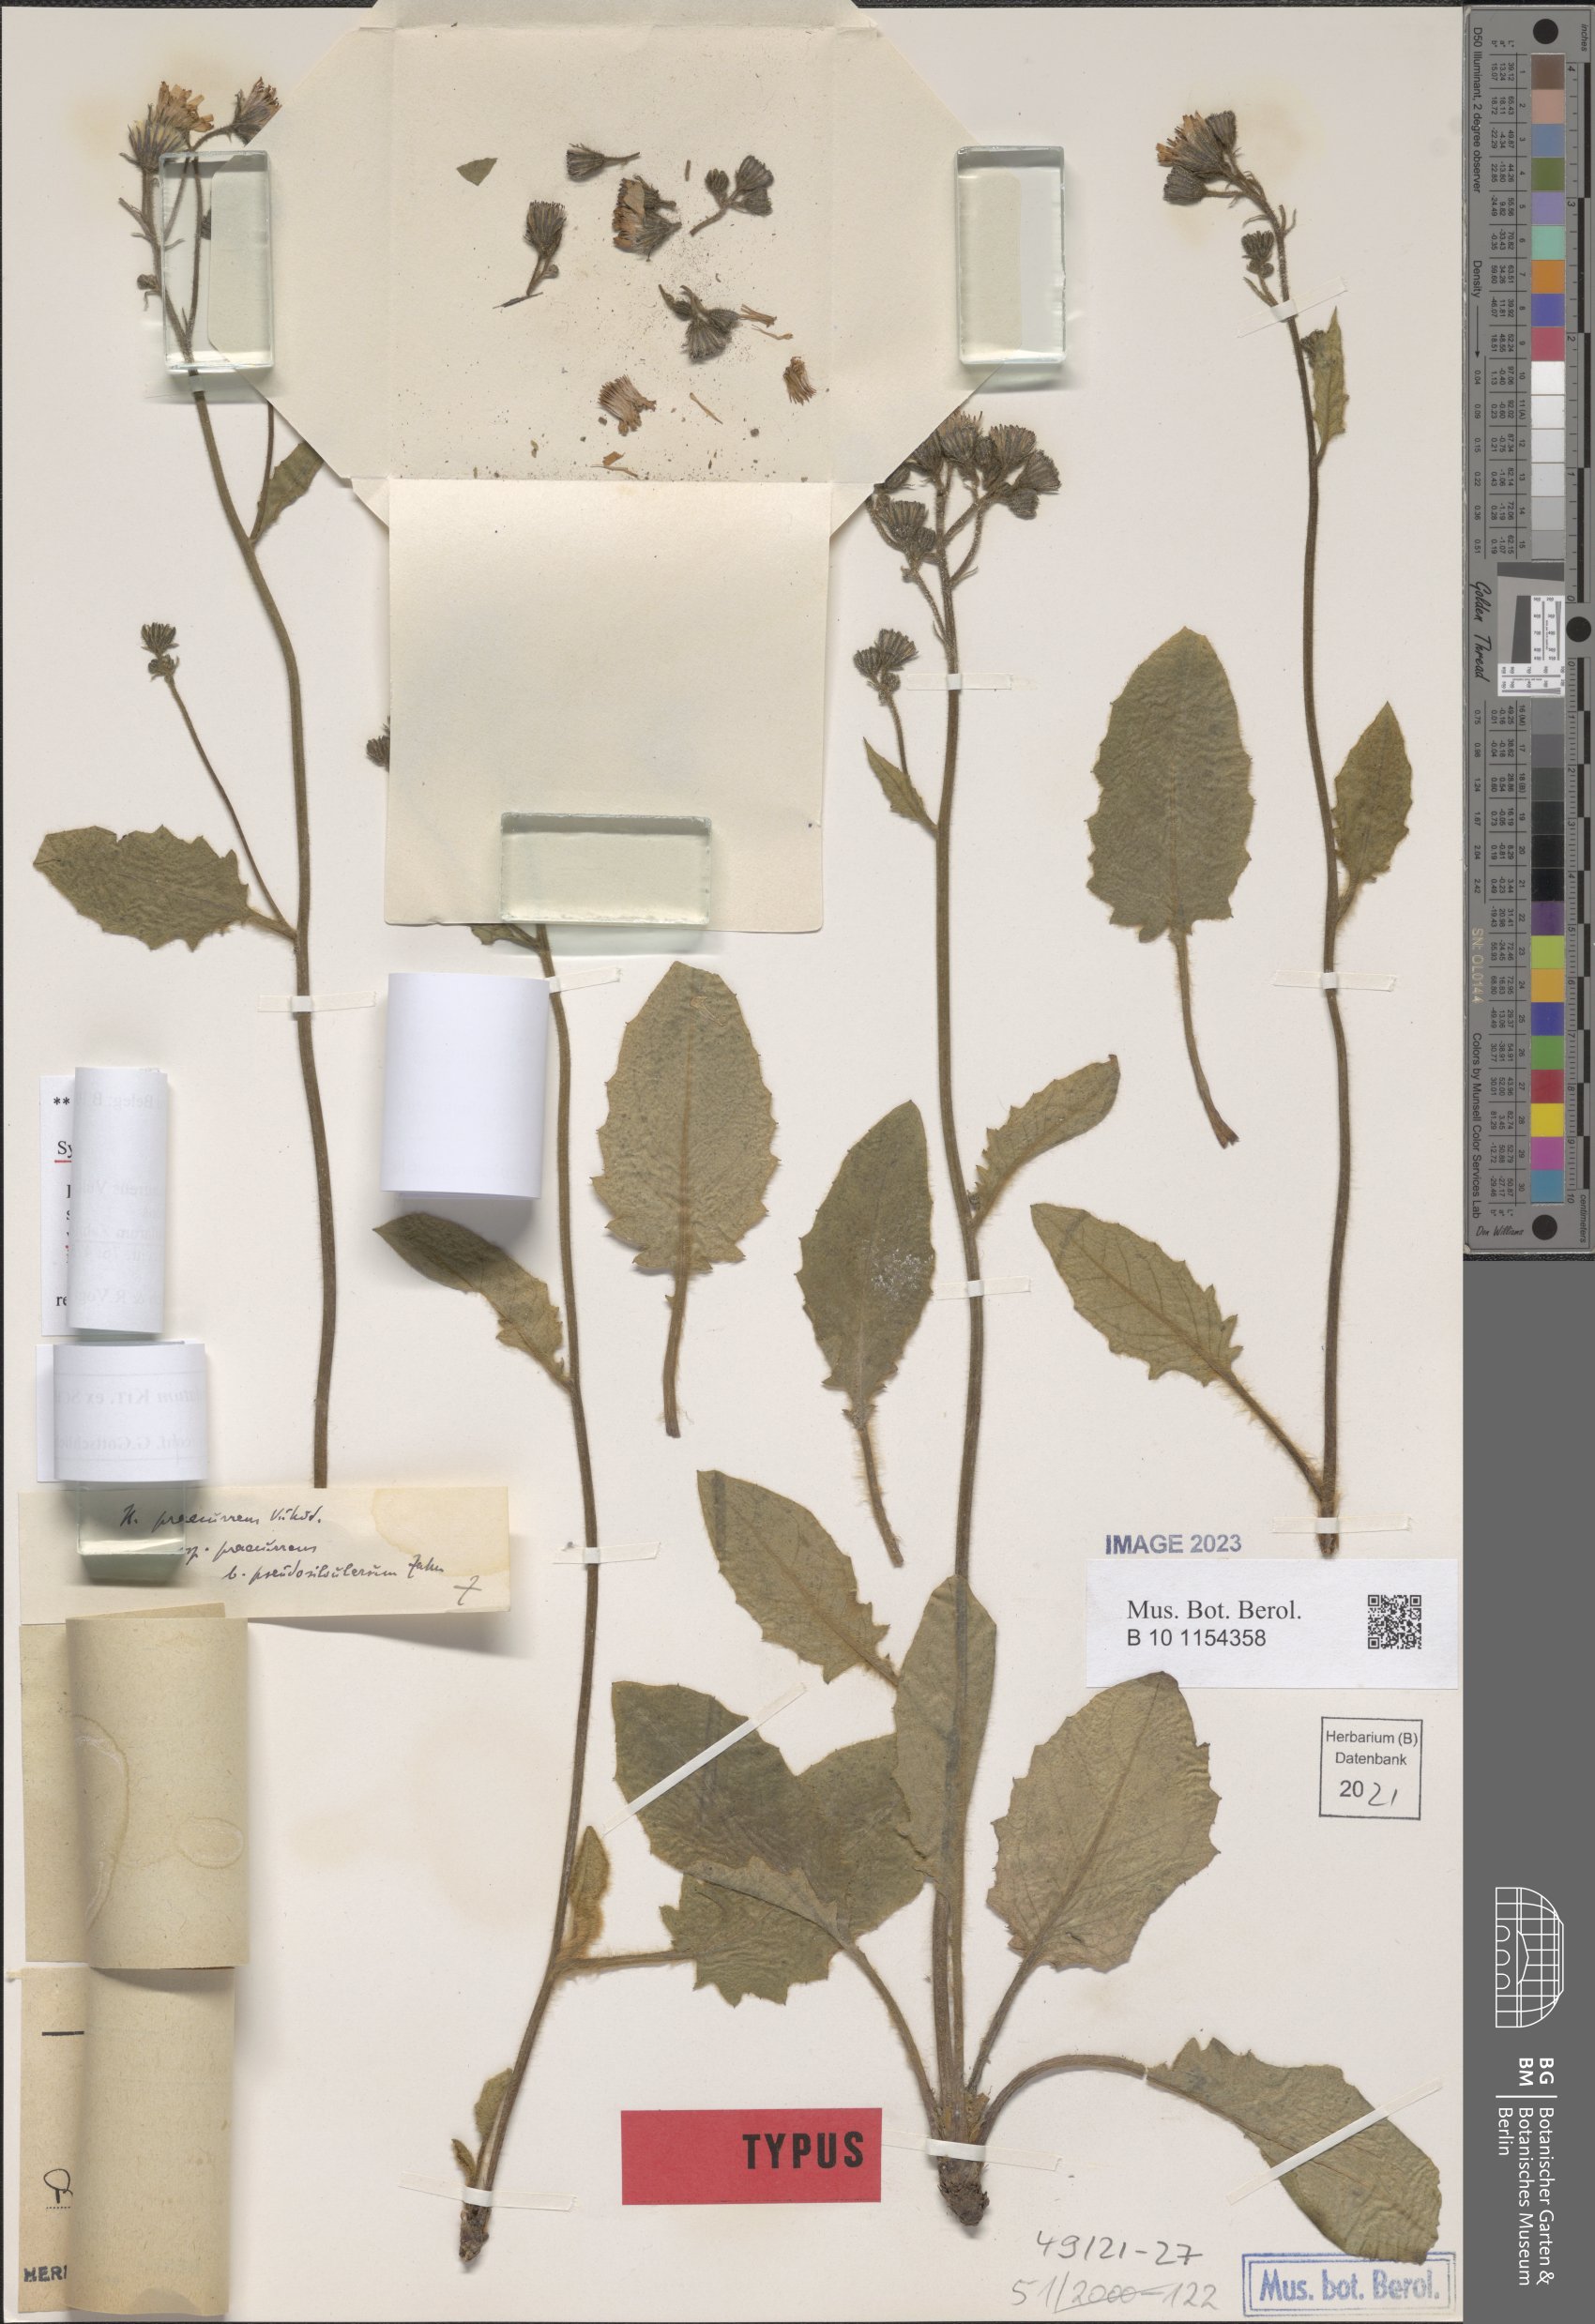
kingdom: Plantae
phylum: Tracheophyta
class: Magnoliopsida
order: Asterales
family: Asteraceae
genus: Hieracium
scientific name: Hieracium rotundatum
